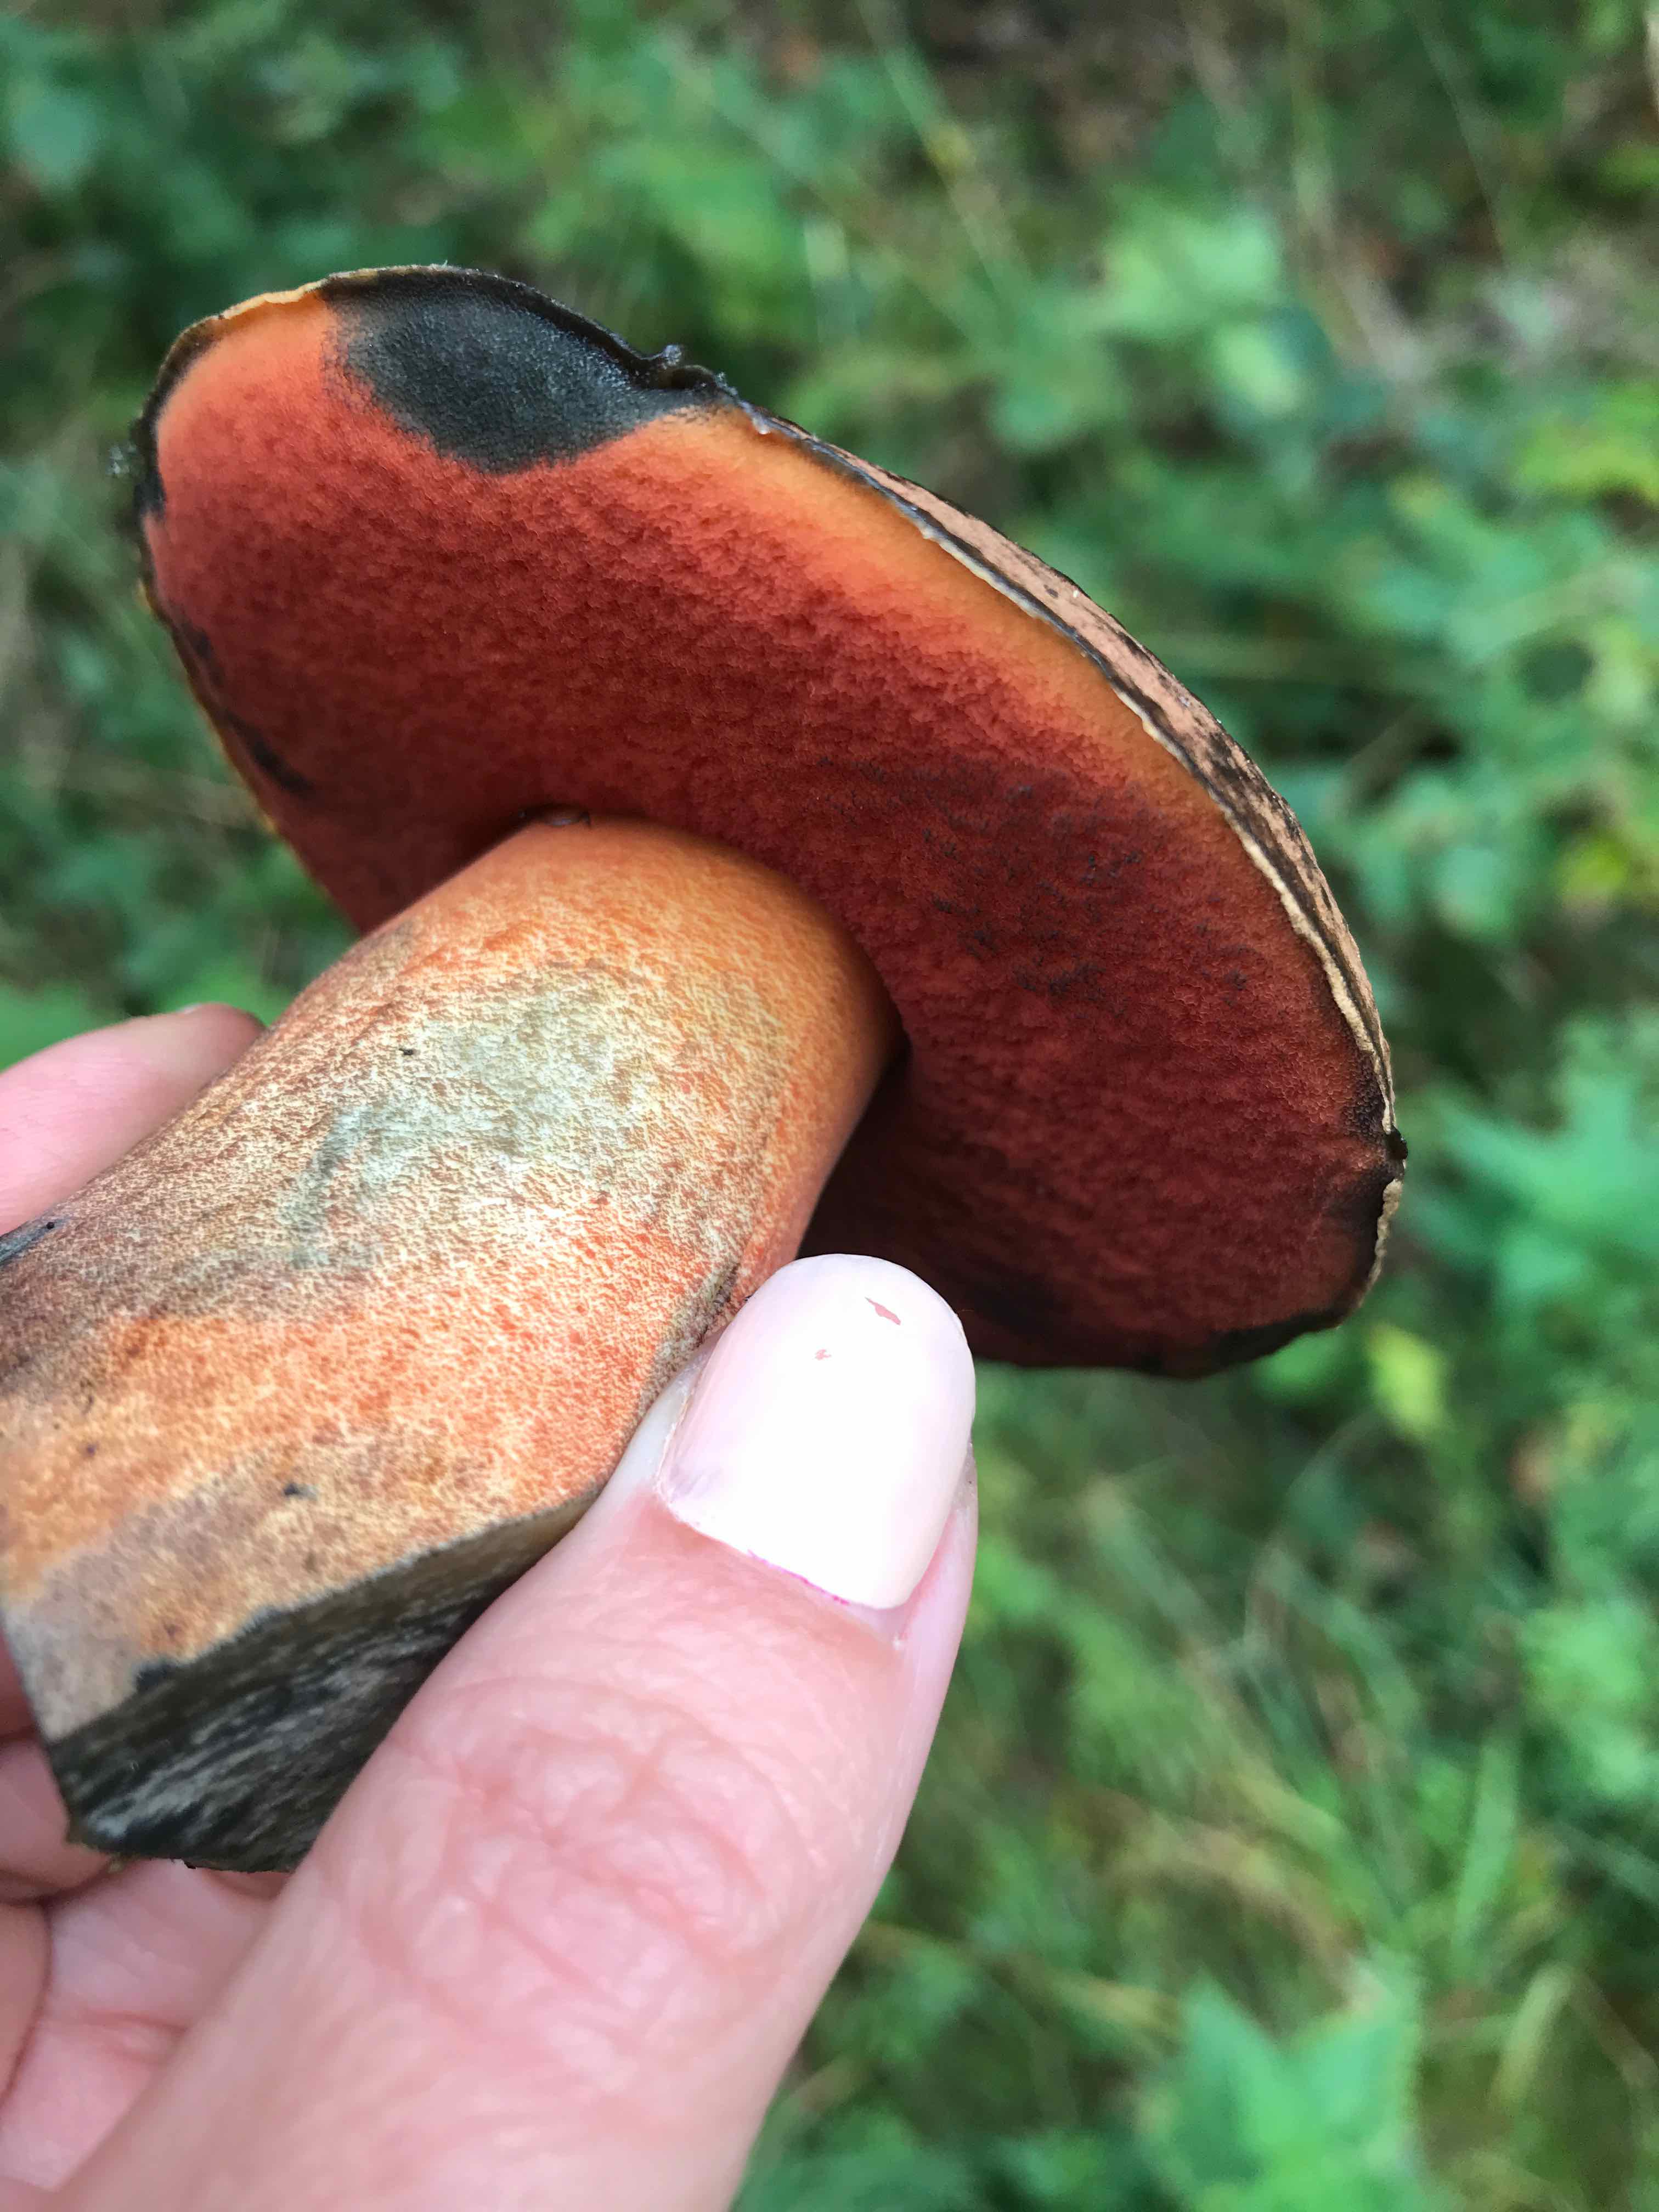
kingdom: Fungi
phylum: Basidiomycota
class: Agaricomycetes
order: Boletales
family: Boletaceae
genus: Neoboletus
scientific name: Neoboletus erythropus
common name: punktstokket indigorørhat
